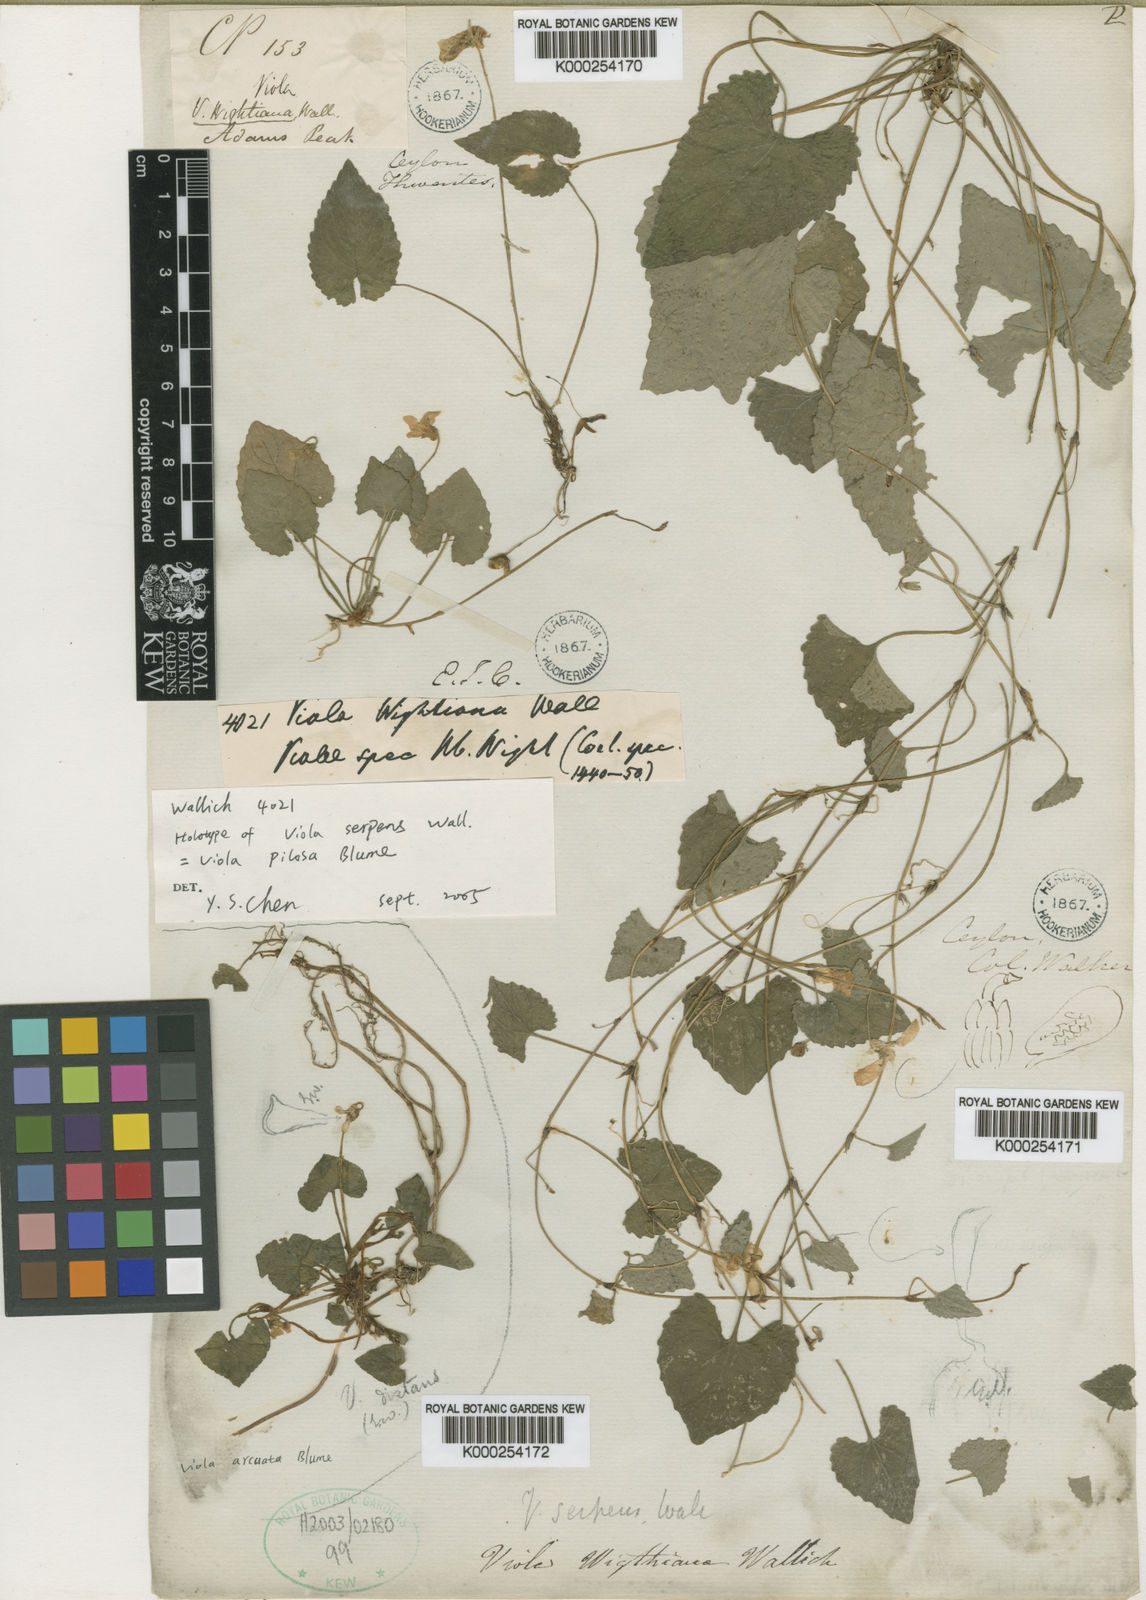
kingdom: Plantae
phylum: Tracheophyta
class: Magnoliopsida
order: Malpighiales
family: Violaceae
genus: Viola
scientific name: Viola pilosa
